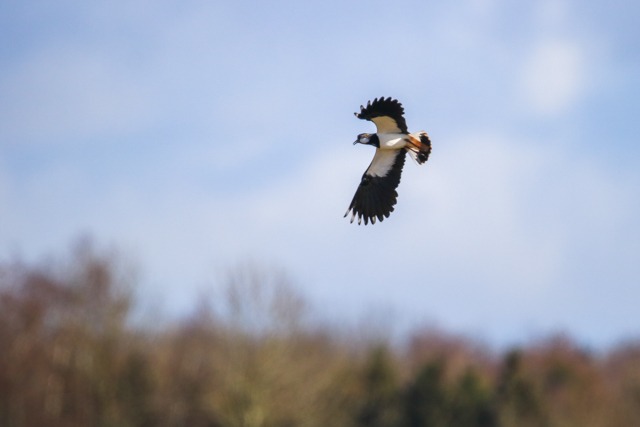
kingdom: Animalia
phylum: Chordata
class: Aves
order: Charadriiformes
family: Charadriidae
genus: Vanellus
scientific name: Vanellus vanellus
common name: Vibe
